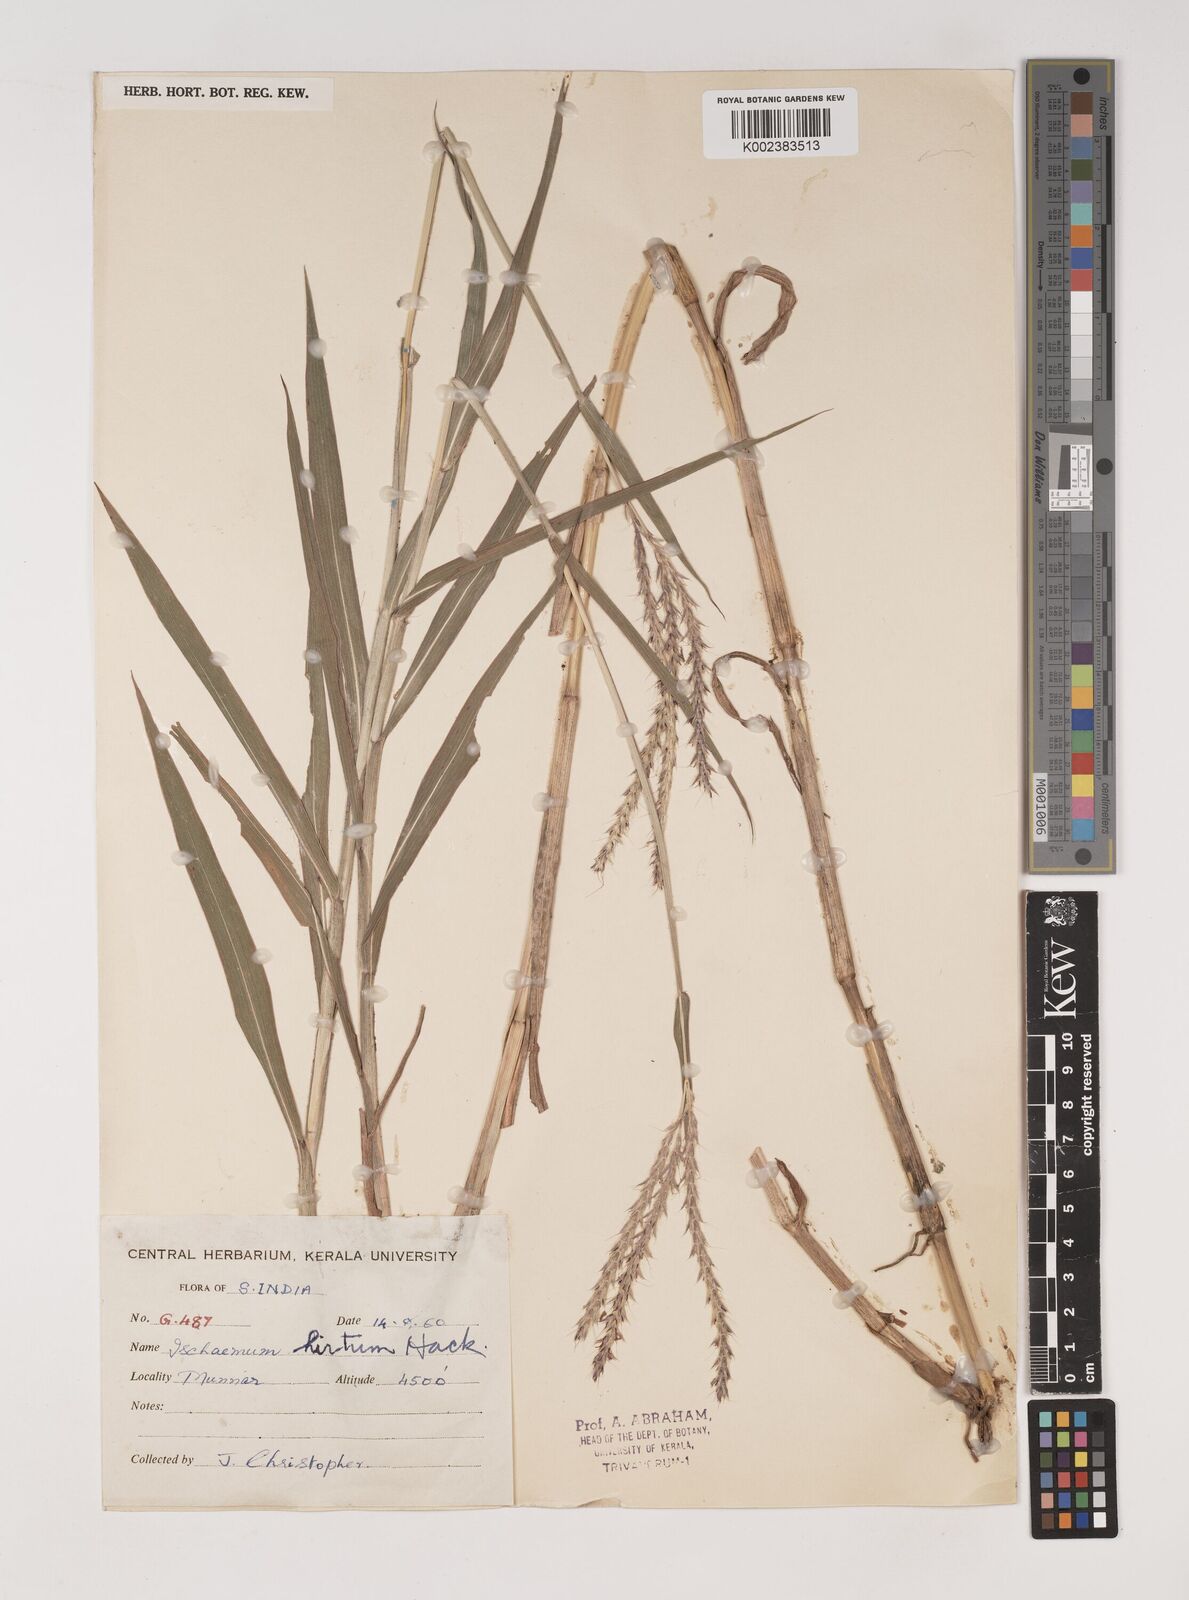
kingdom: Plantae
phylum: Tracheophyta
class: Liliopsida
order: Poales
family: Poaceae
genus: Ischaemum
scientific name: Ischaemum
